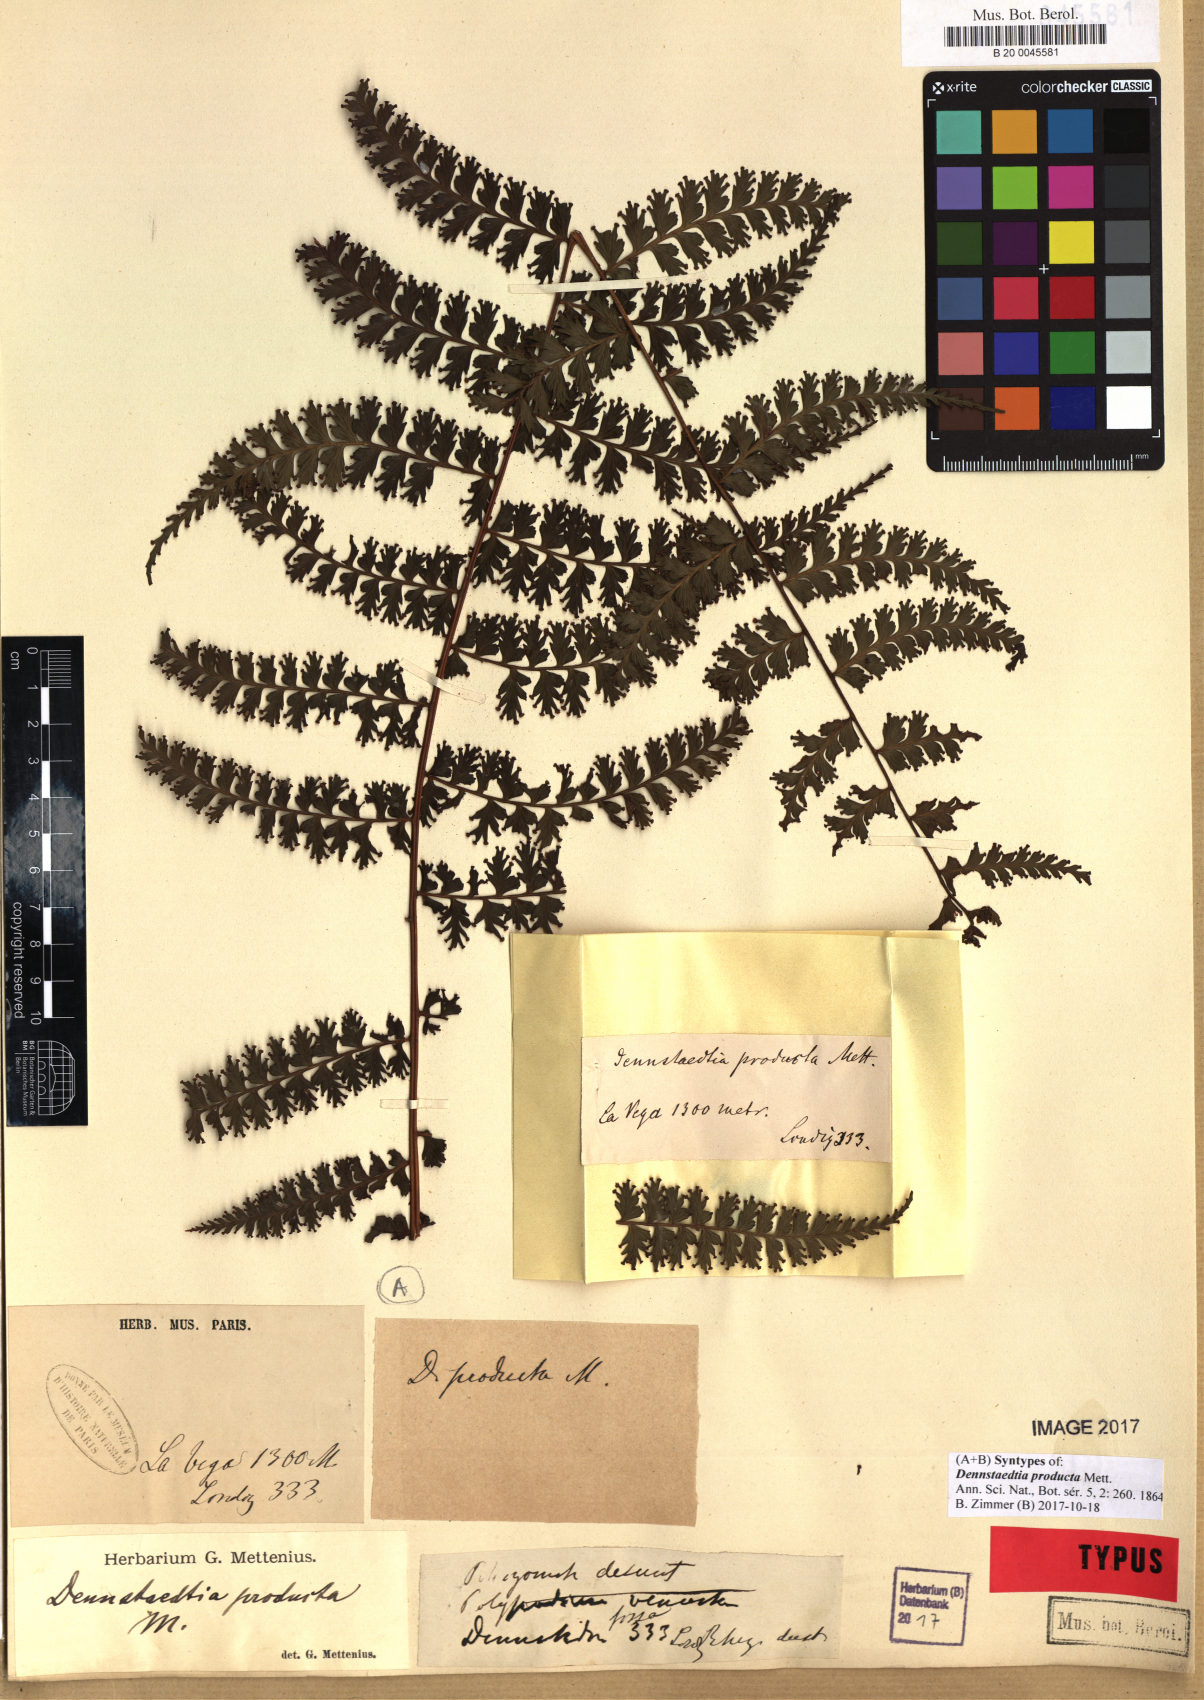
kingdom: Plantae
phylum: Tracheophyta
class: Polypodiopsida
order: Polypodiales
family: Dennstaedtiaceae
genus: Dennstaedtia
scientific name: Dennstaedtia producta
